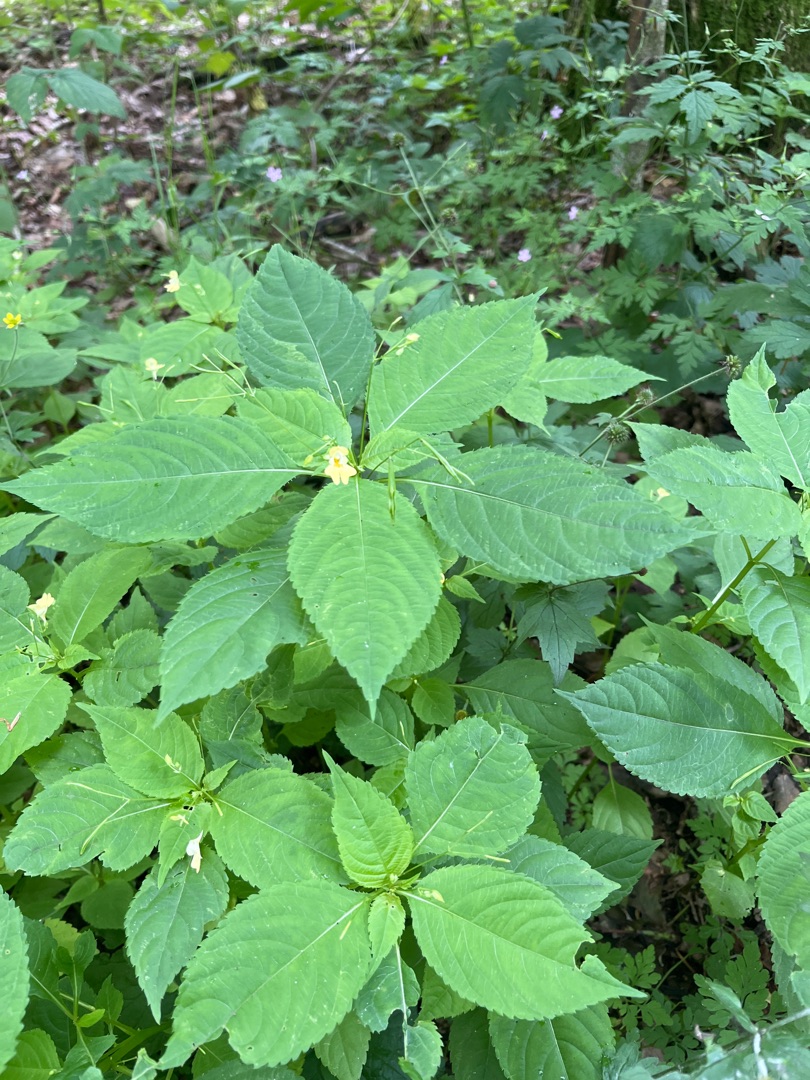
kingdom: Plantae
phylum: Tracheophyta
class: Magnoliopsida
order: Ericales
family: Balsaminaceae
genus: Impatiens
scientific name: Impatiens parviflora
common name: Småblomstret balsamin
